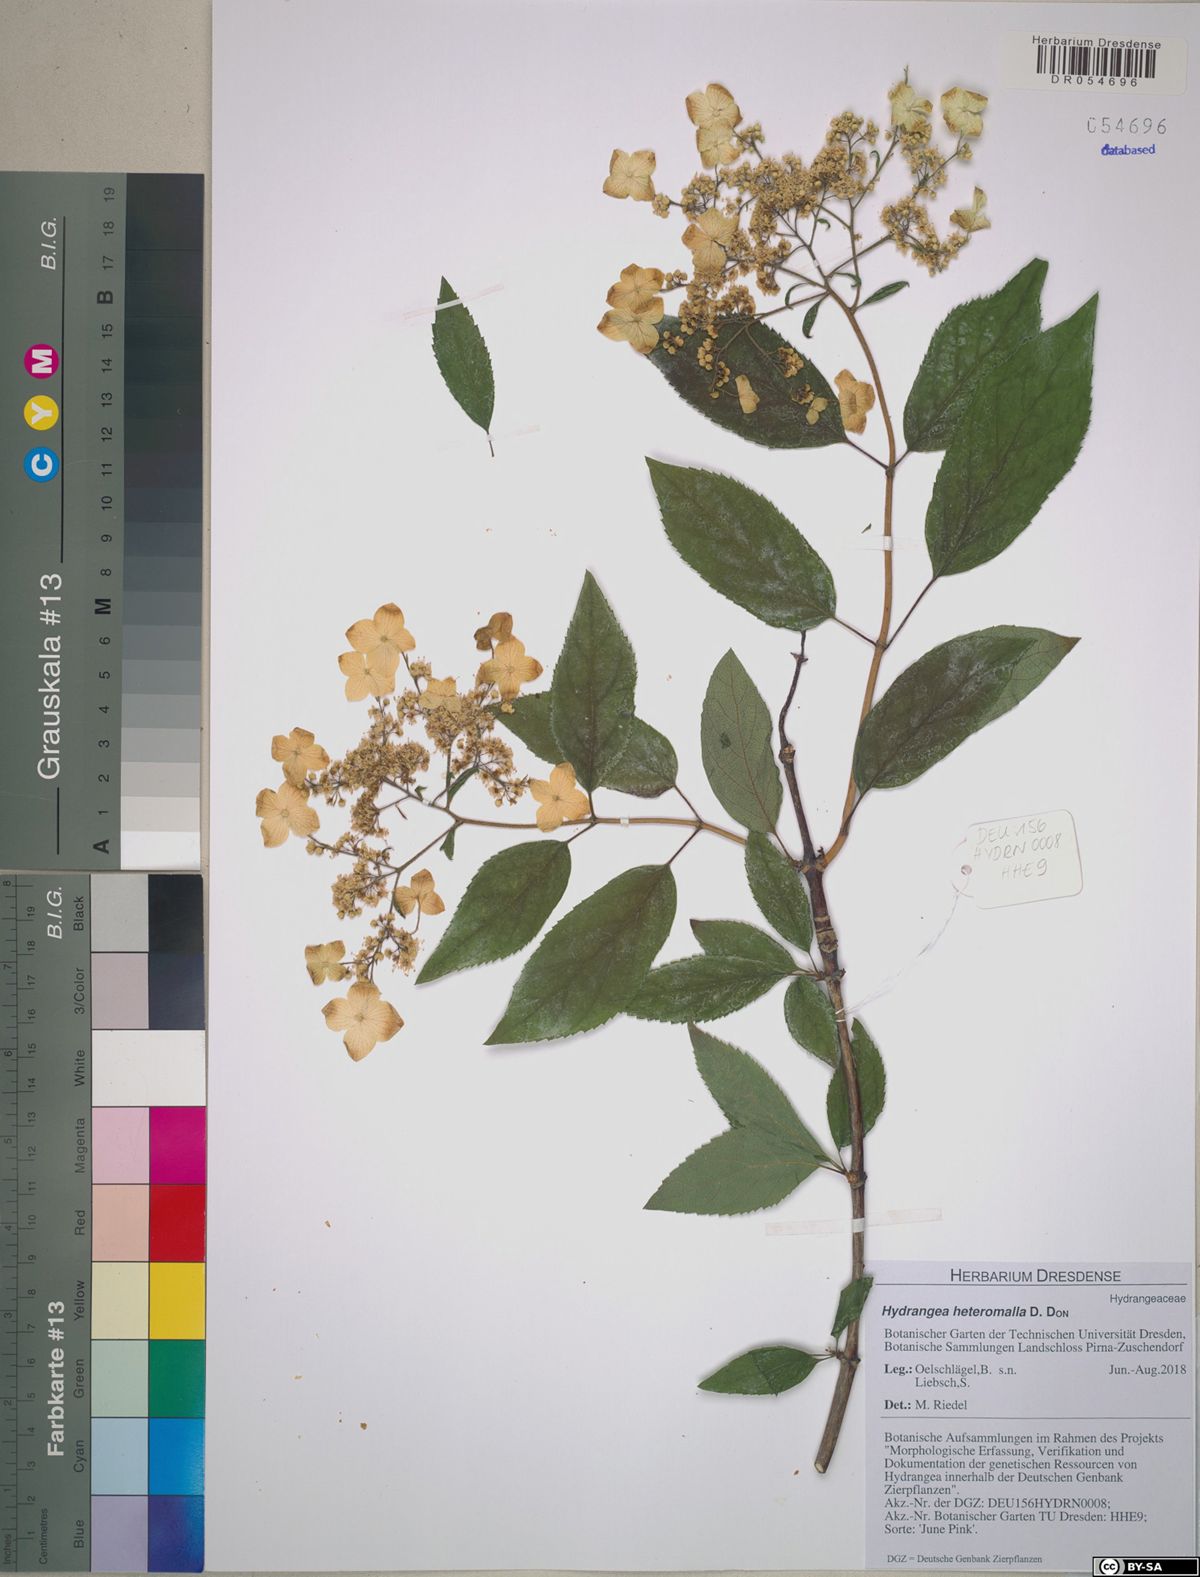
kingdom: Plantae
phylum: Tracheophyta
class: Magnoliopsida
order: Cornales
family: Hydrangeaceae
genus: Hydrangea
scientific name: Hydrangea heteromalla
